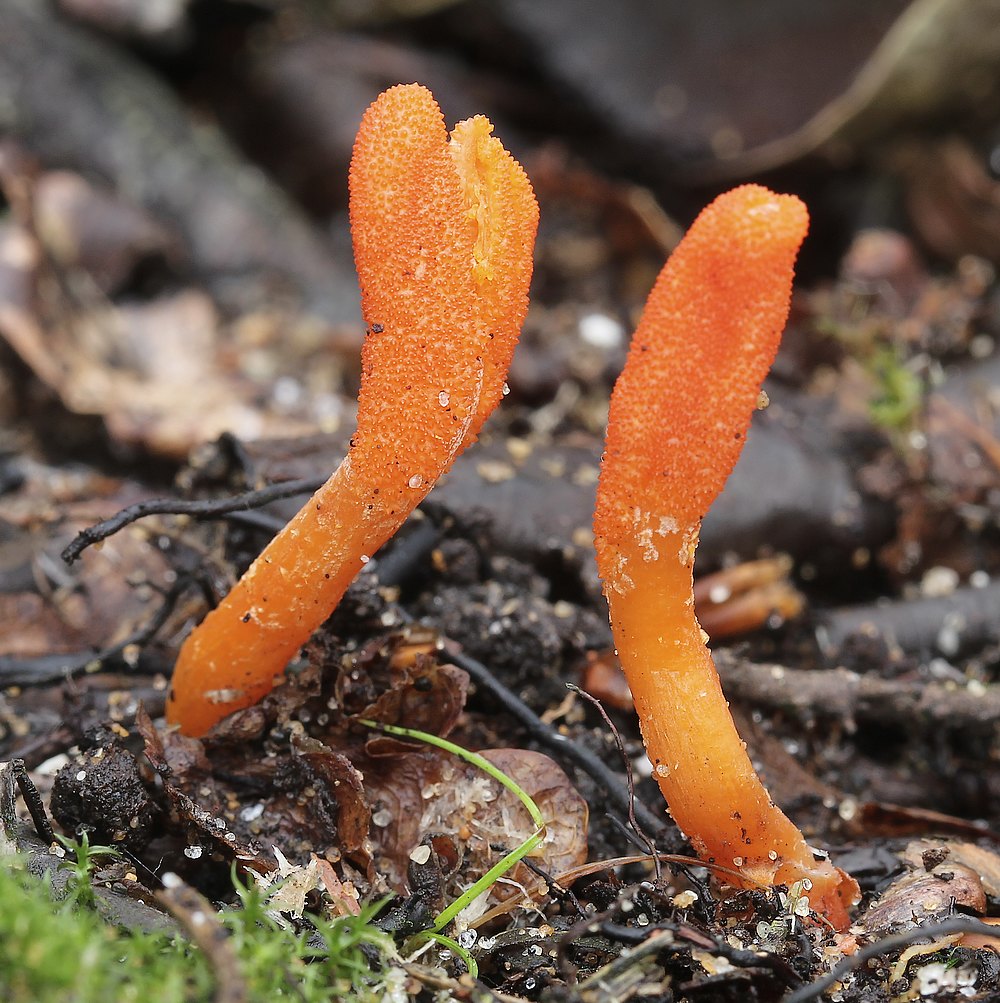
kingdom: Fungi
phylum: Ascomycota
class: Sordariomycetes
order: Hypocreales
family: Cordycipitaceae
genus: Cordyceps
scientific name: Cordyceps militaris
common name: puppe-snyltekølle
